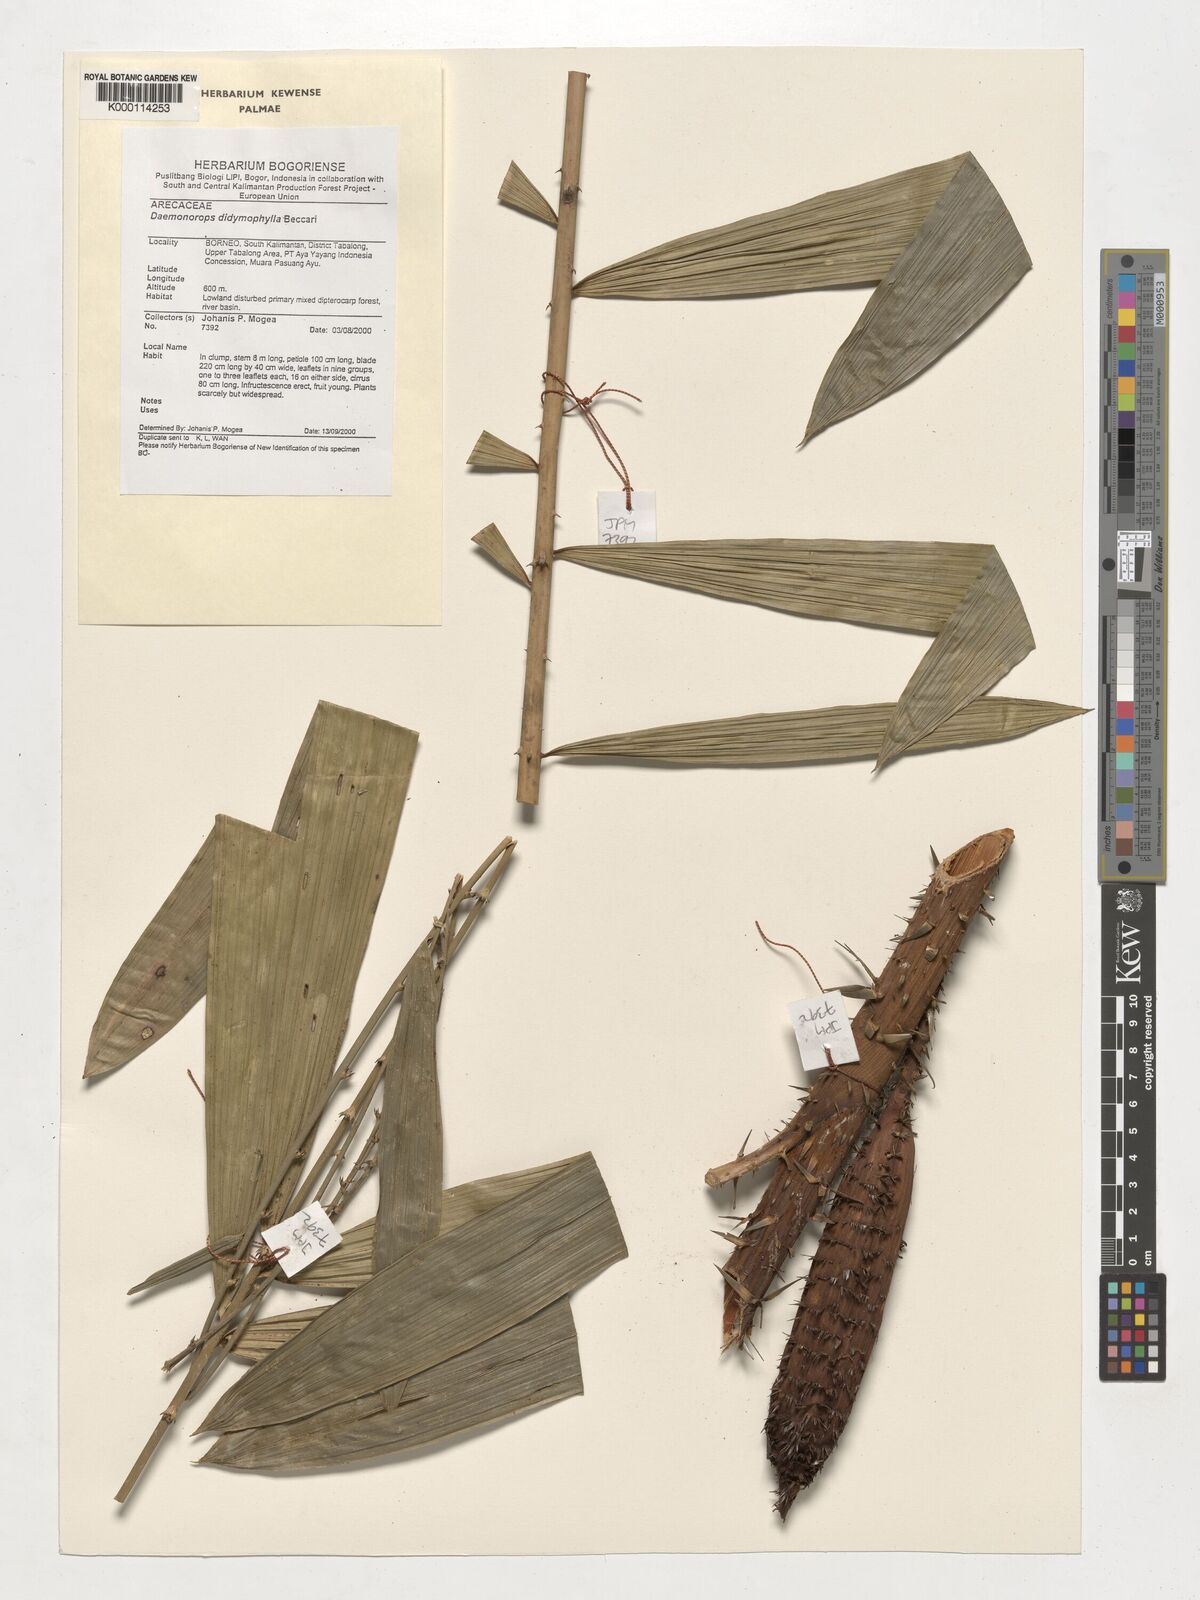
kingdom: Plantae
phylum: Tracheophyta
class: Liliopsida
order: Arecales
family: Arecaceae
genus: Calamus
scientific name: Calamus gracilipes
